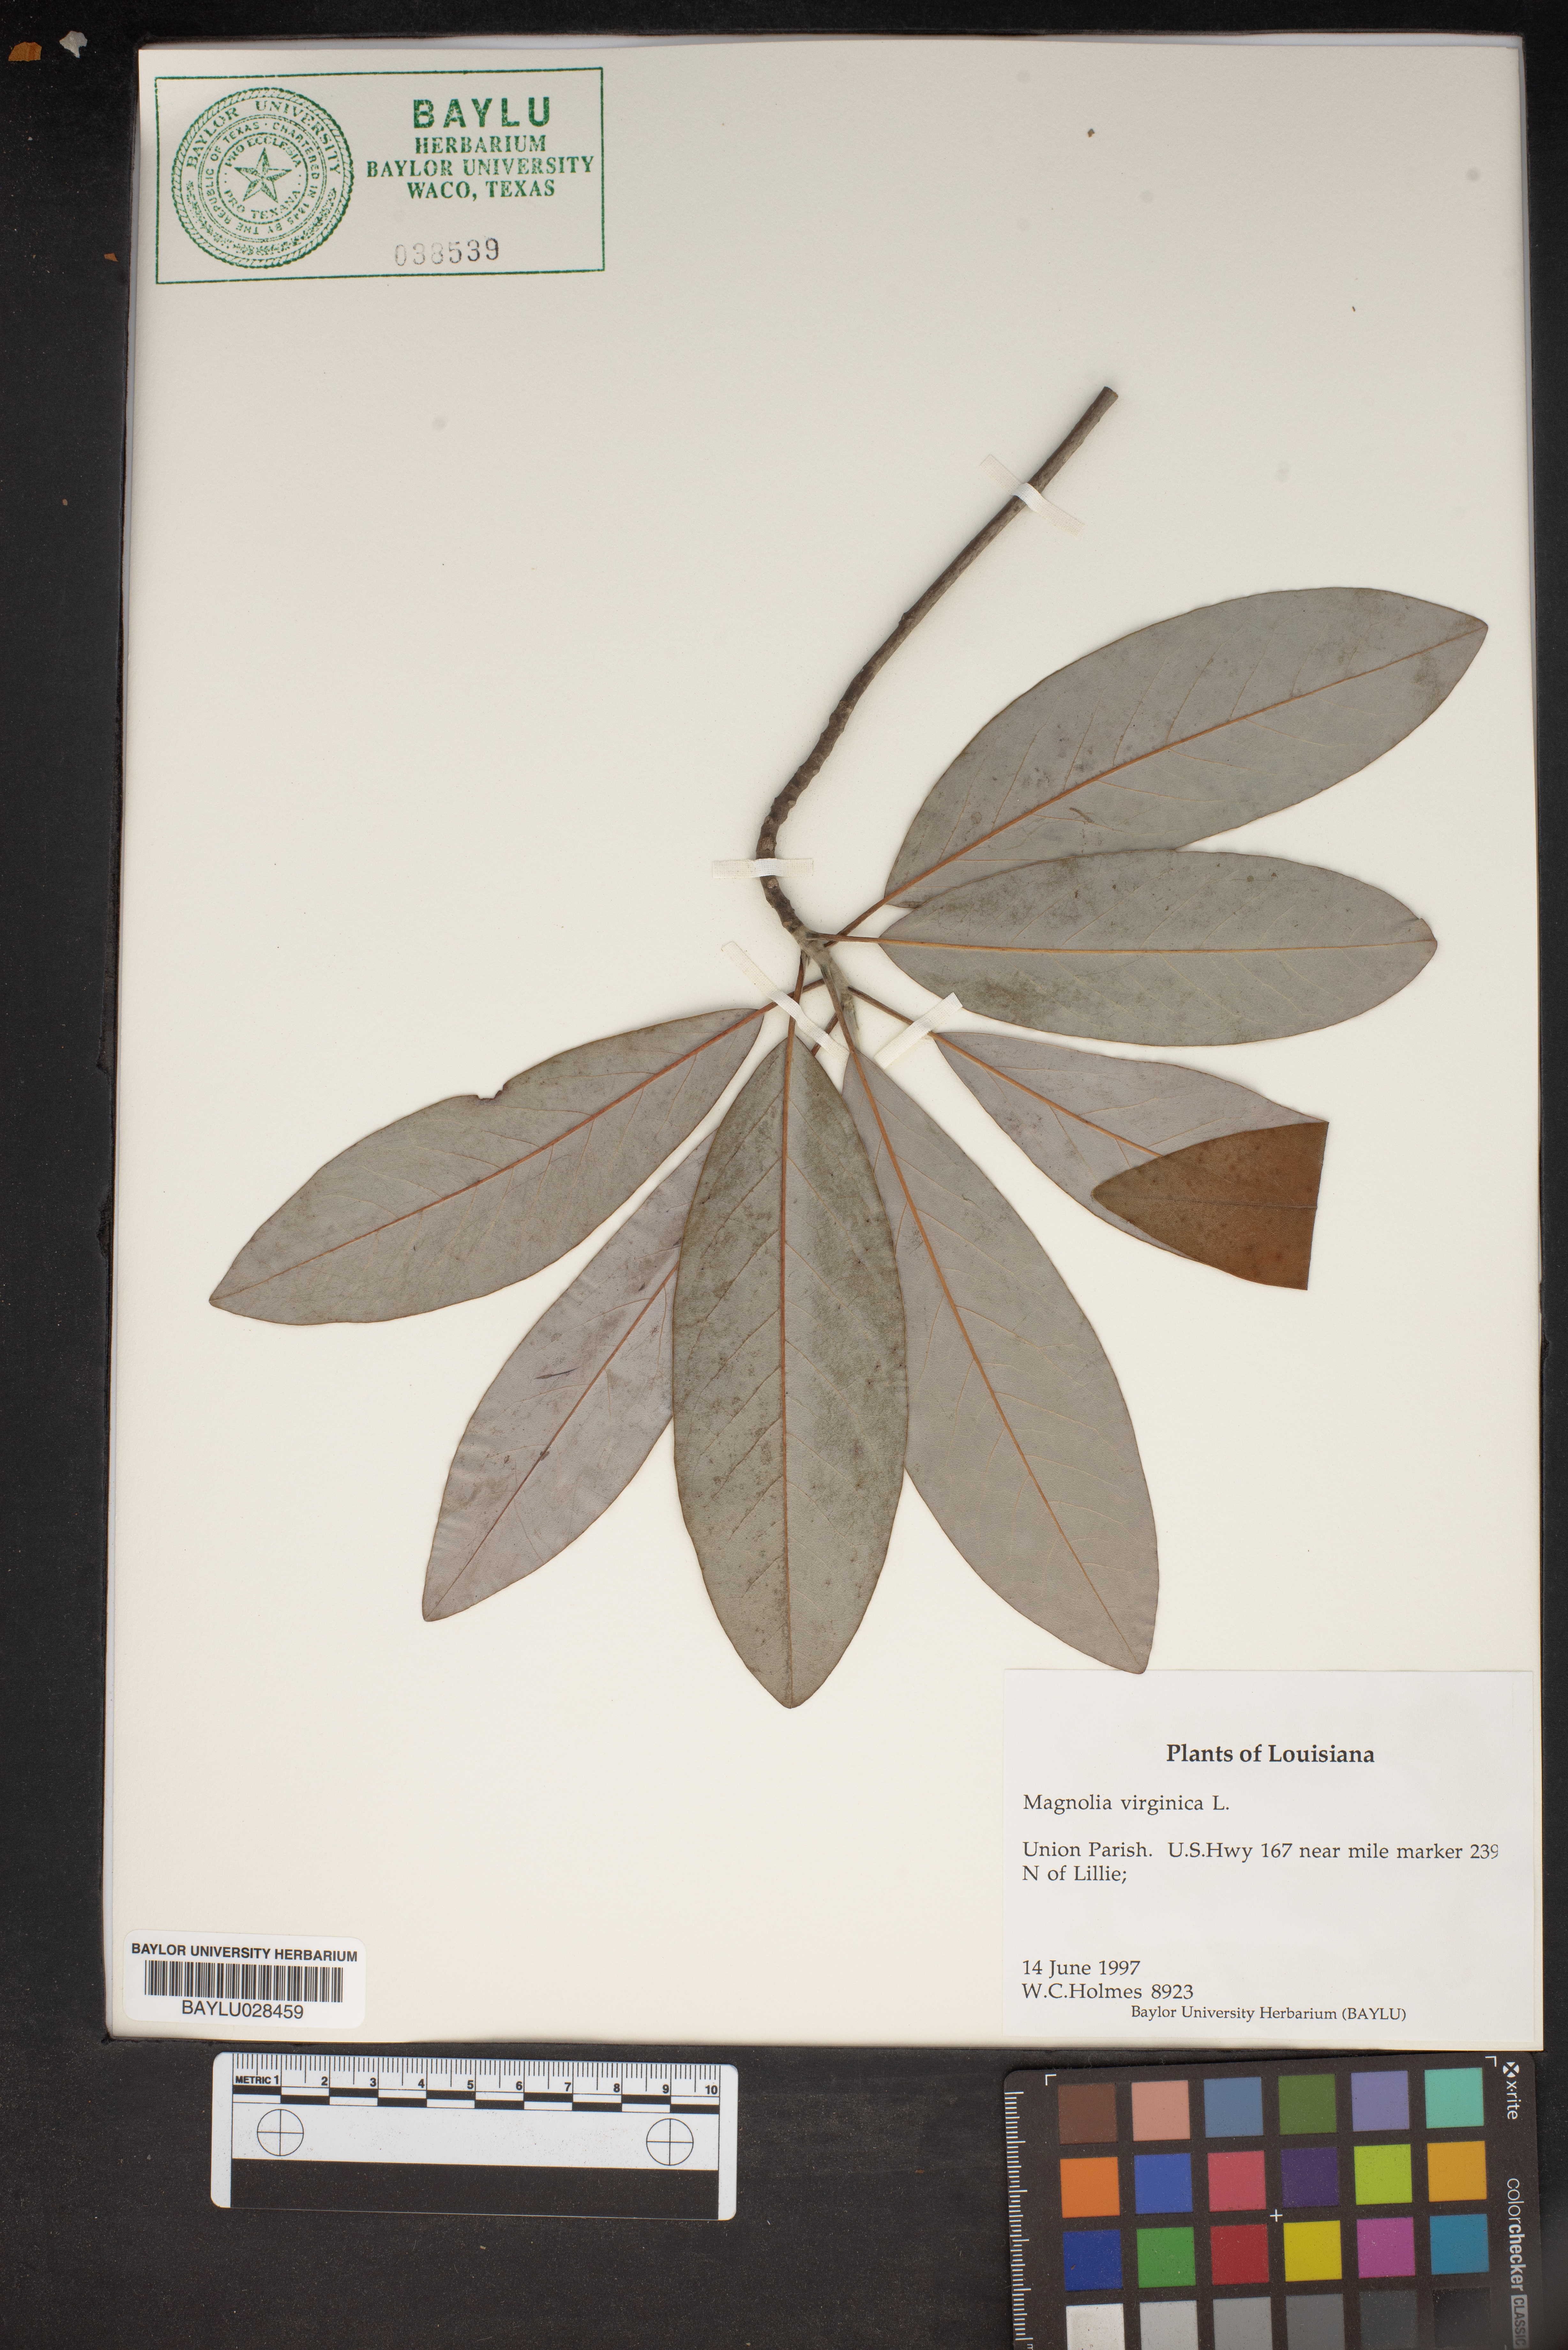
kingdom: Plantae
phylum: Tracheophyta
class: Magnoliopsida
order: Magnoliales
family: Magnoliaceae
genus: Magnolia
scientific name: Magnolia virginiana
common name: Swamp bay
